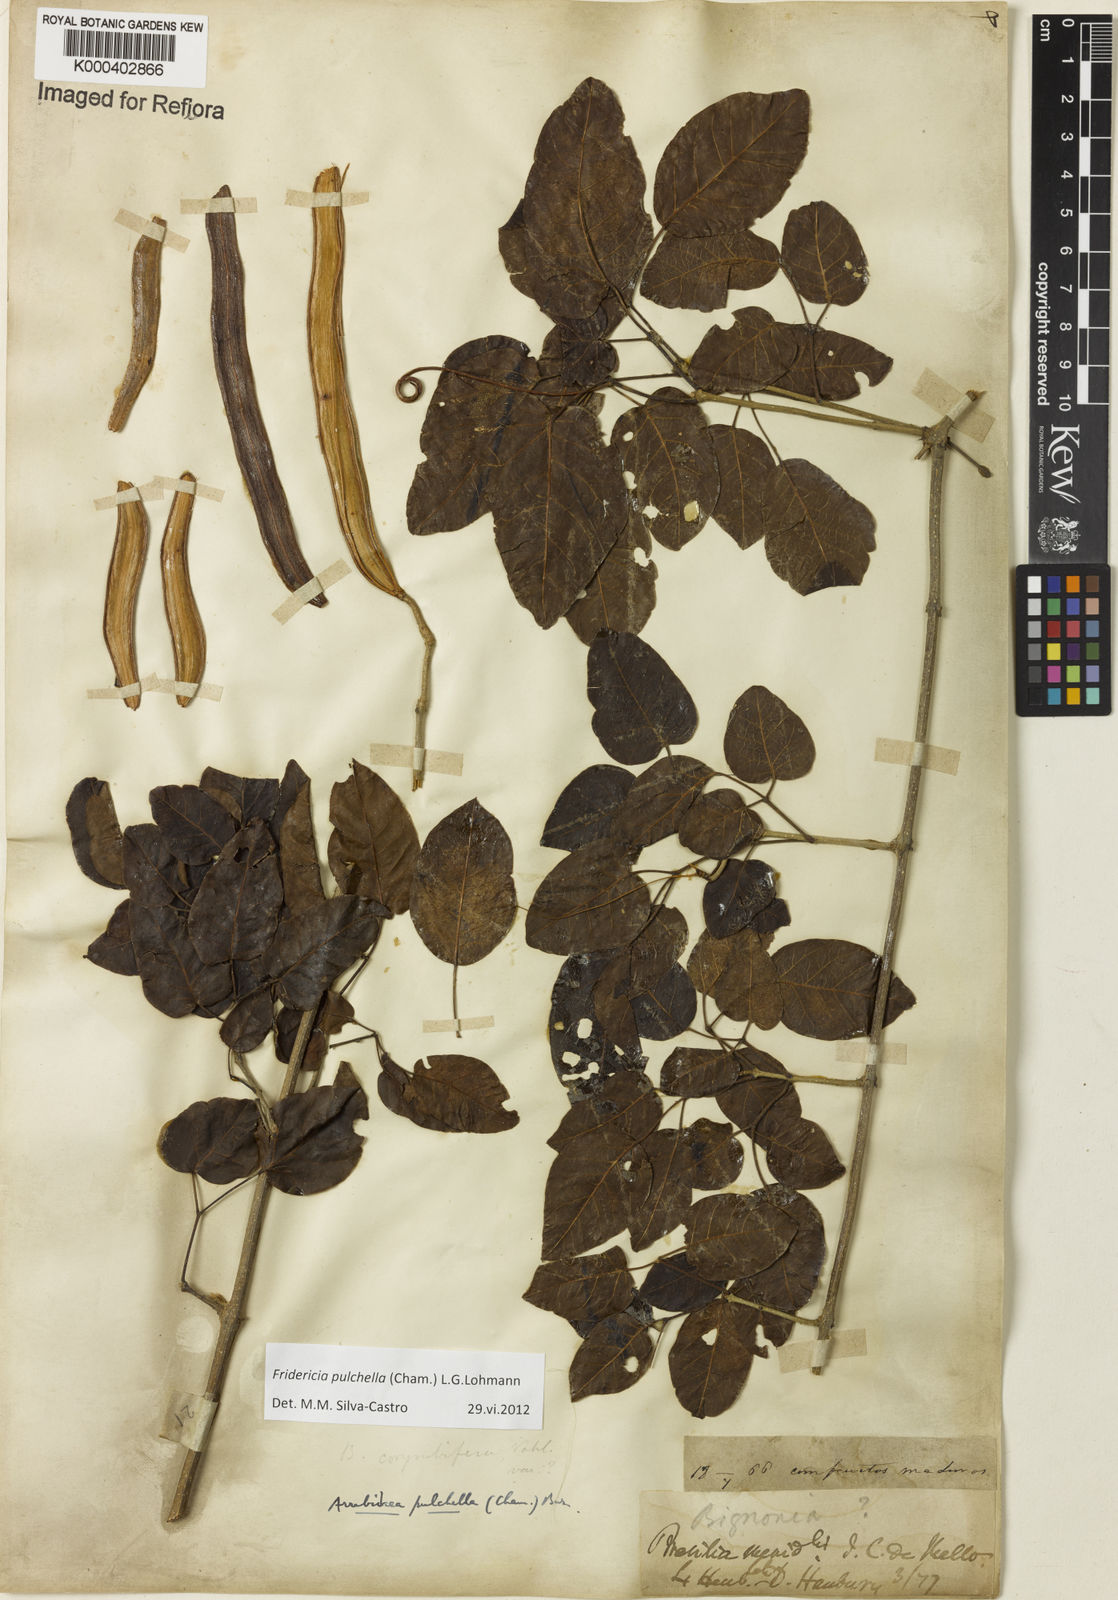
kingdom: Plantae
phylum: Tracheophyta
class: Magnoliopsida
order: Lamiales
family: Bignoniaceae
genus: Fridericia
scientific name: Fridericia
